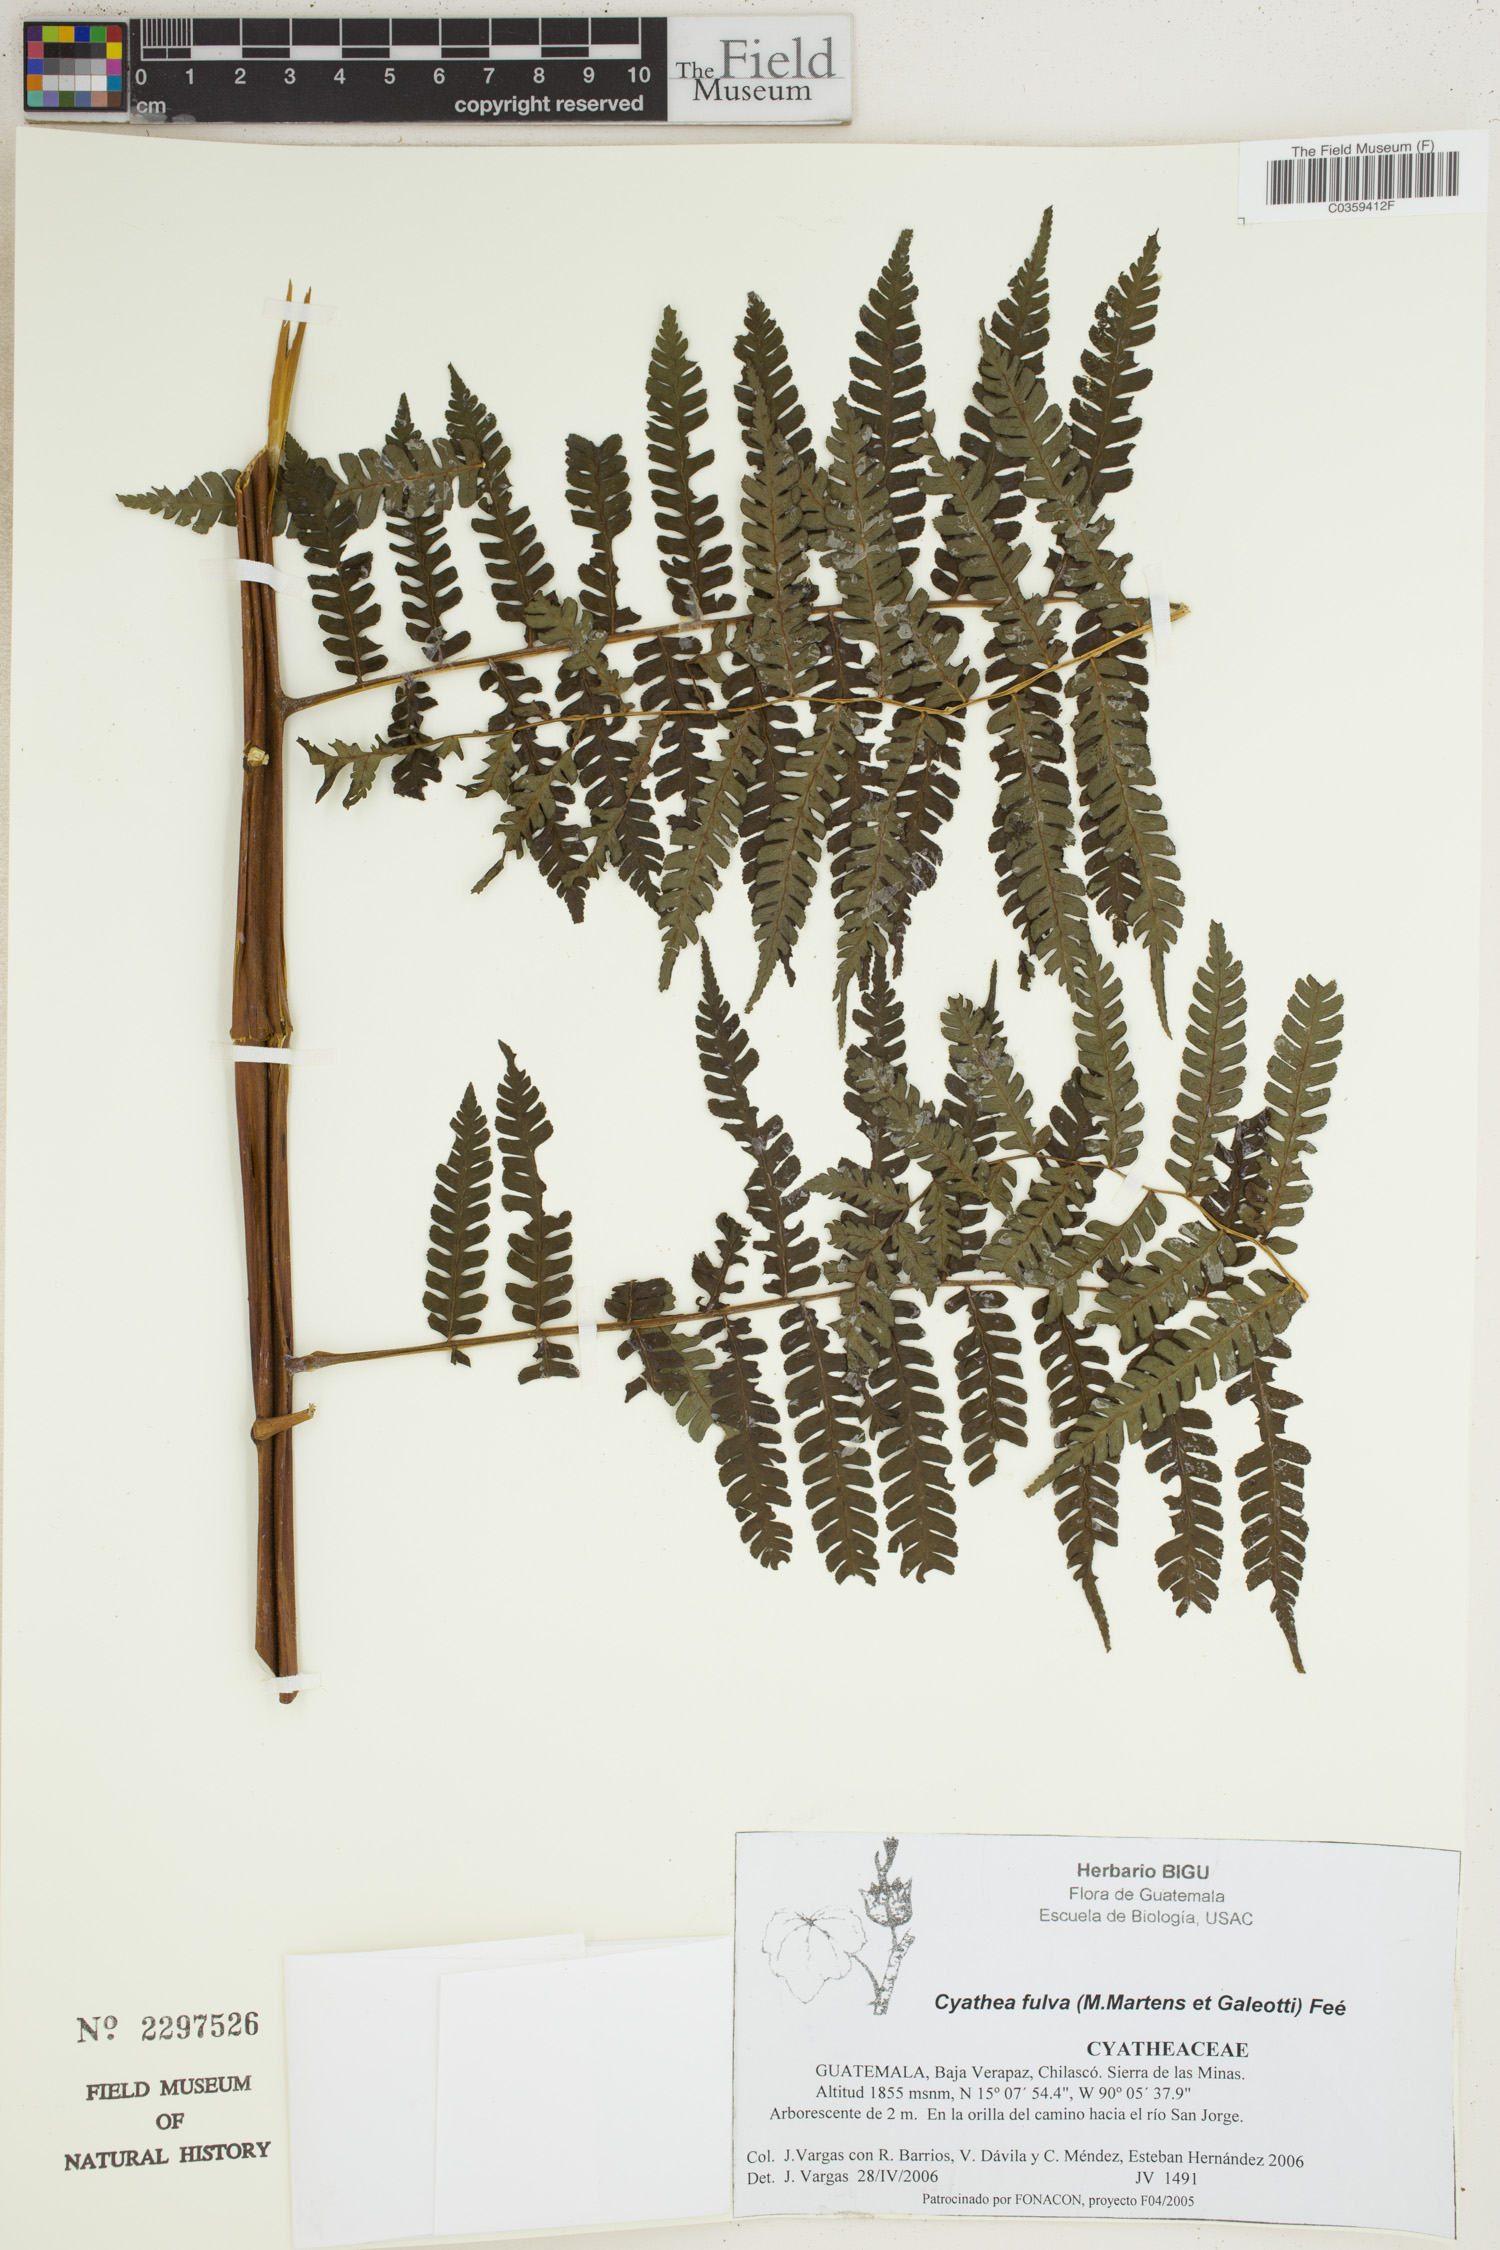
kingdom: Plantae
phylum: Tracheophyta
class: Polypodiopsida
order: Cyatheales
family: Cyatheaceae
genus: Cyathea
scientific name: Cyathea fulva
